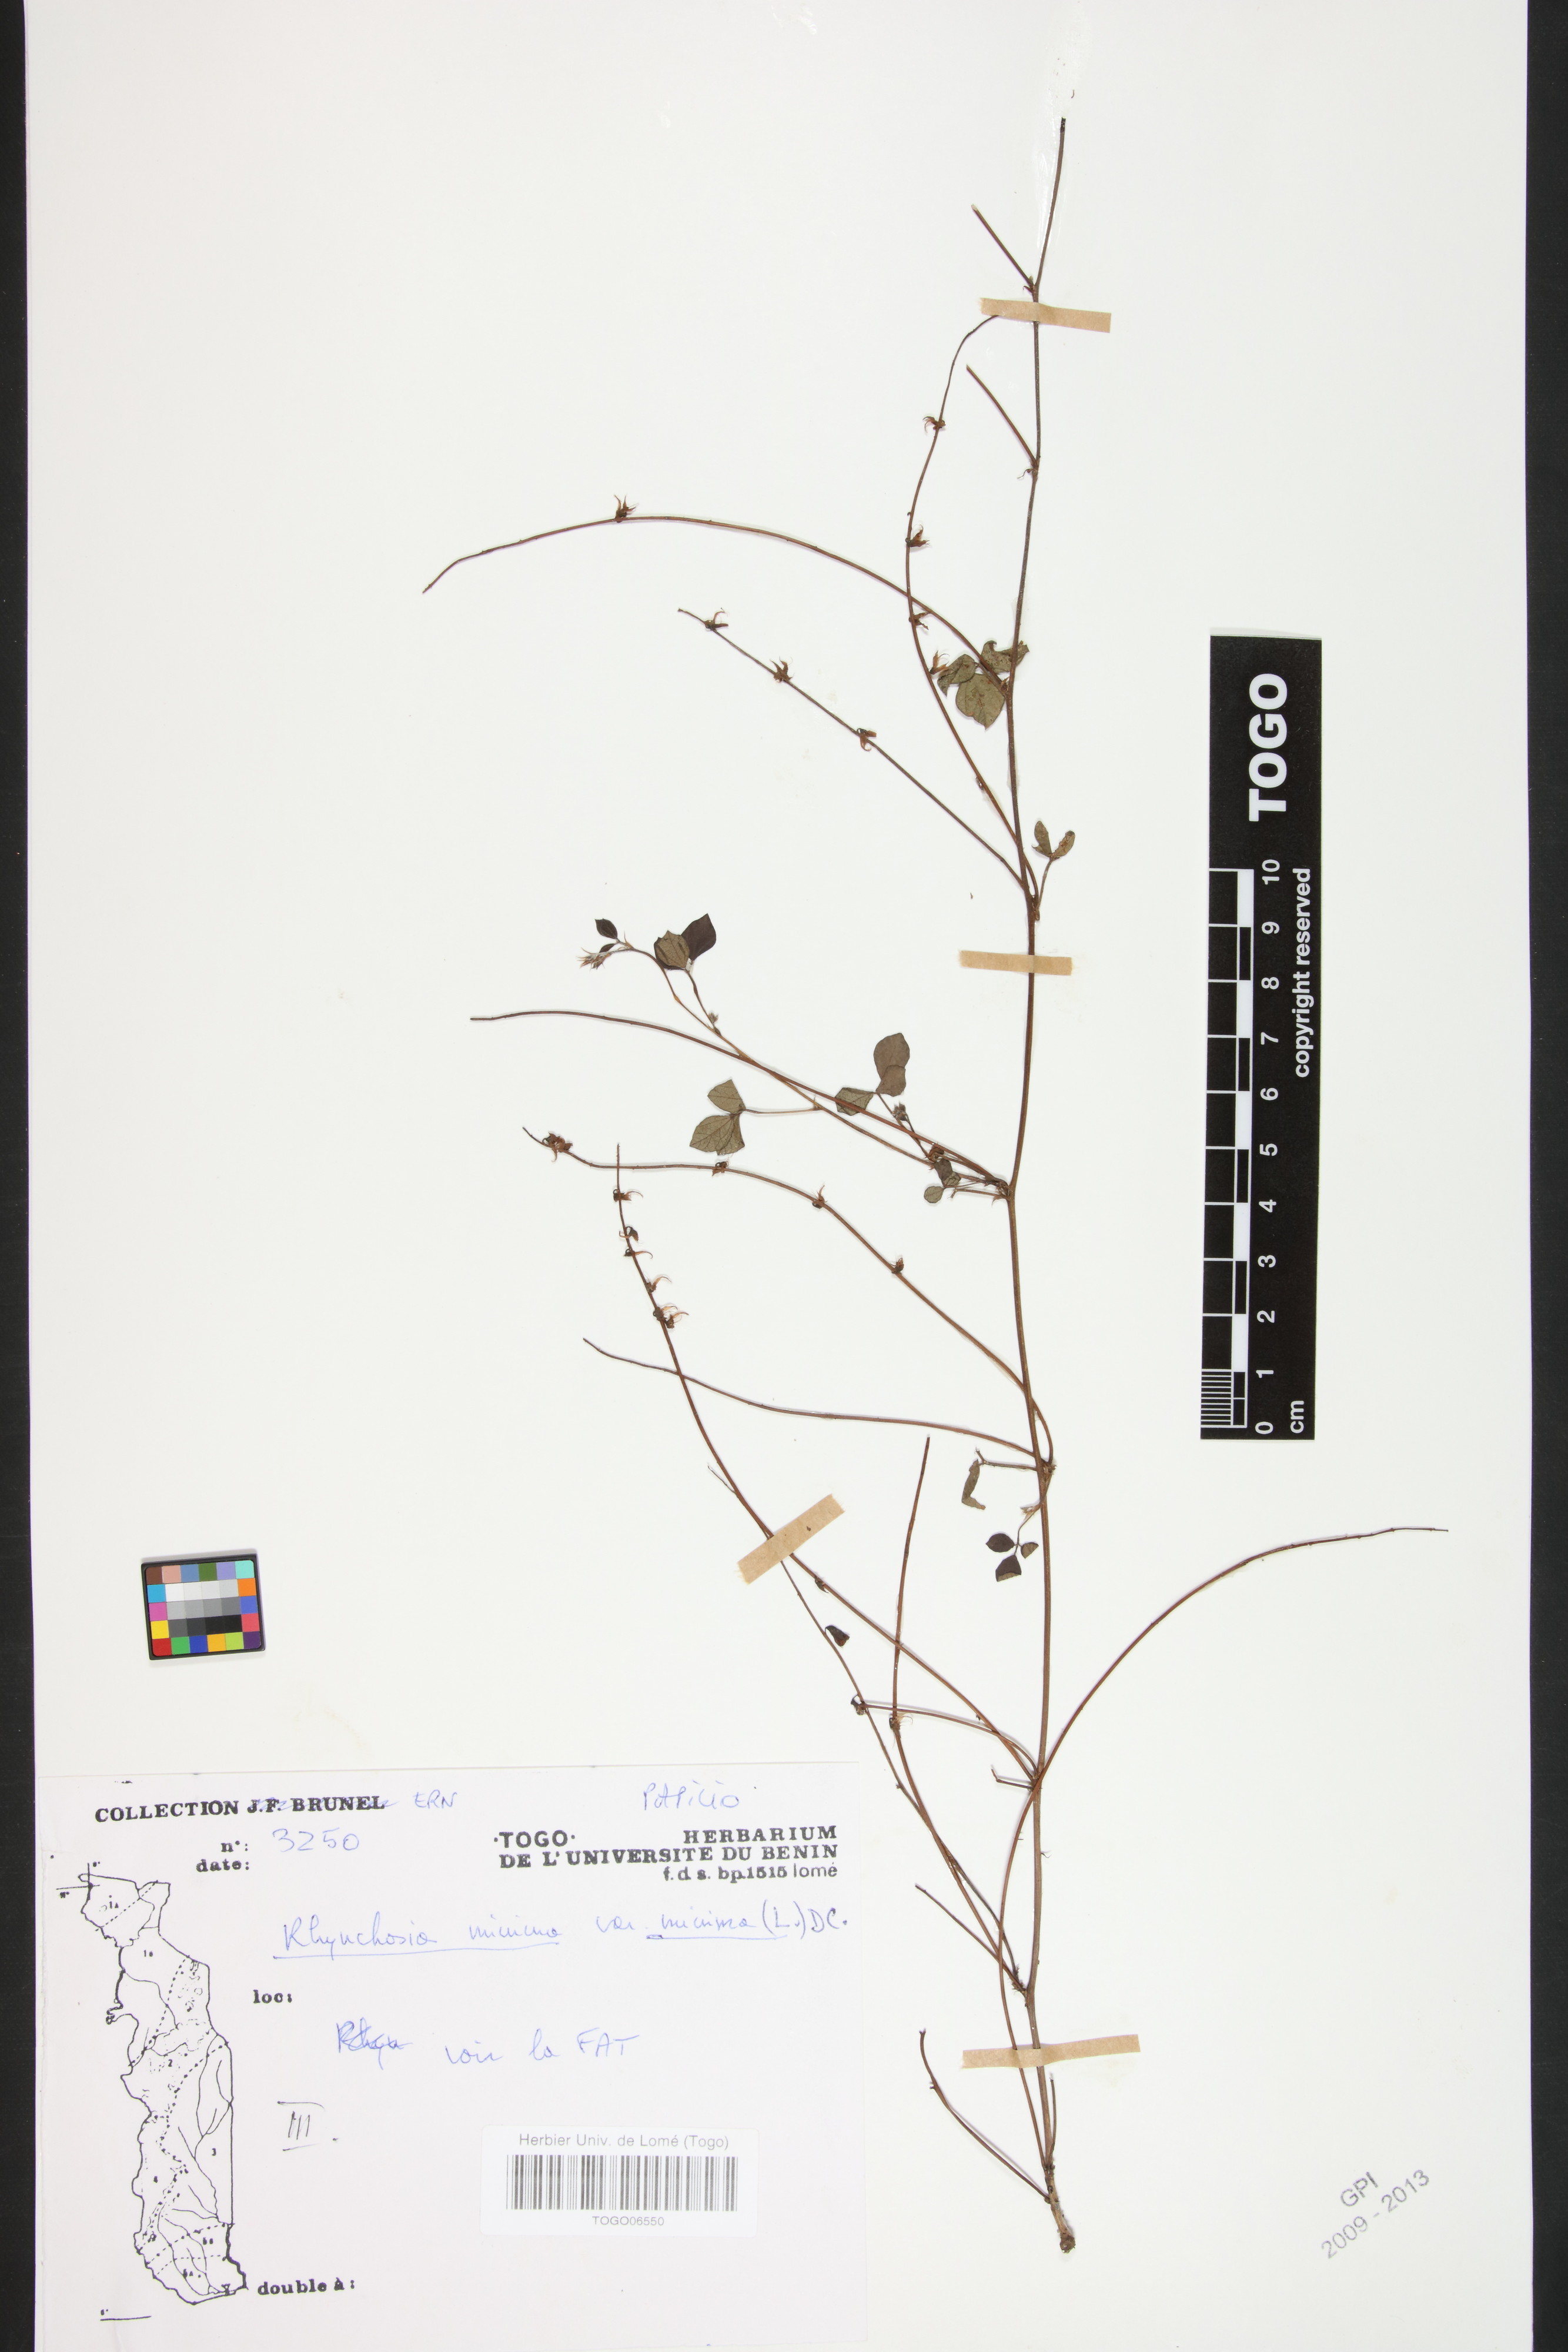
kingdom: Plantae
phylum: Tracheophyta
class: Magnoliopsida
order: Fabales
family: Fabaceae
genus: Rhynchosia
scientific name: Rhynchosia minima
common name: Least snoutbean
